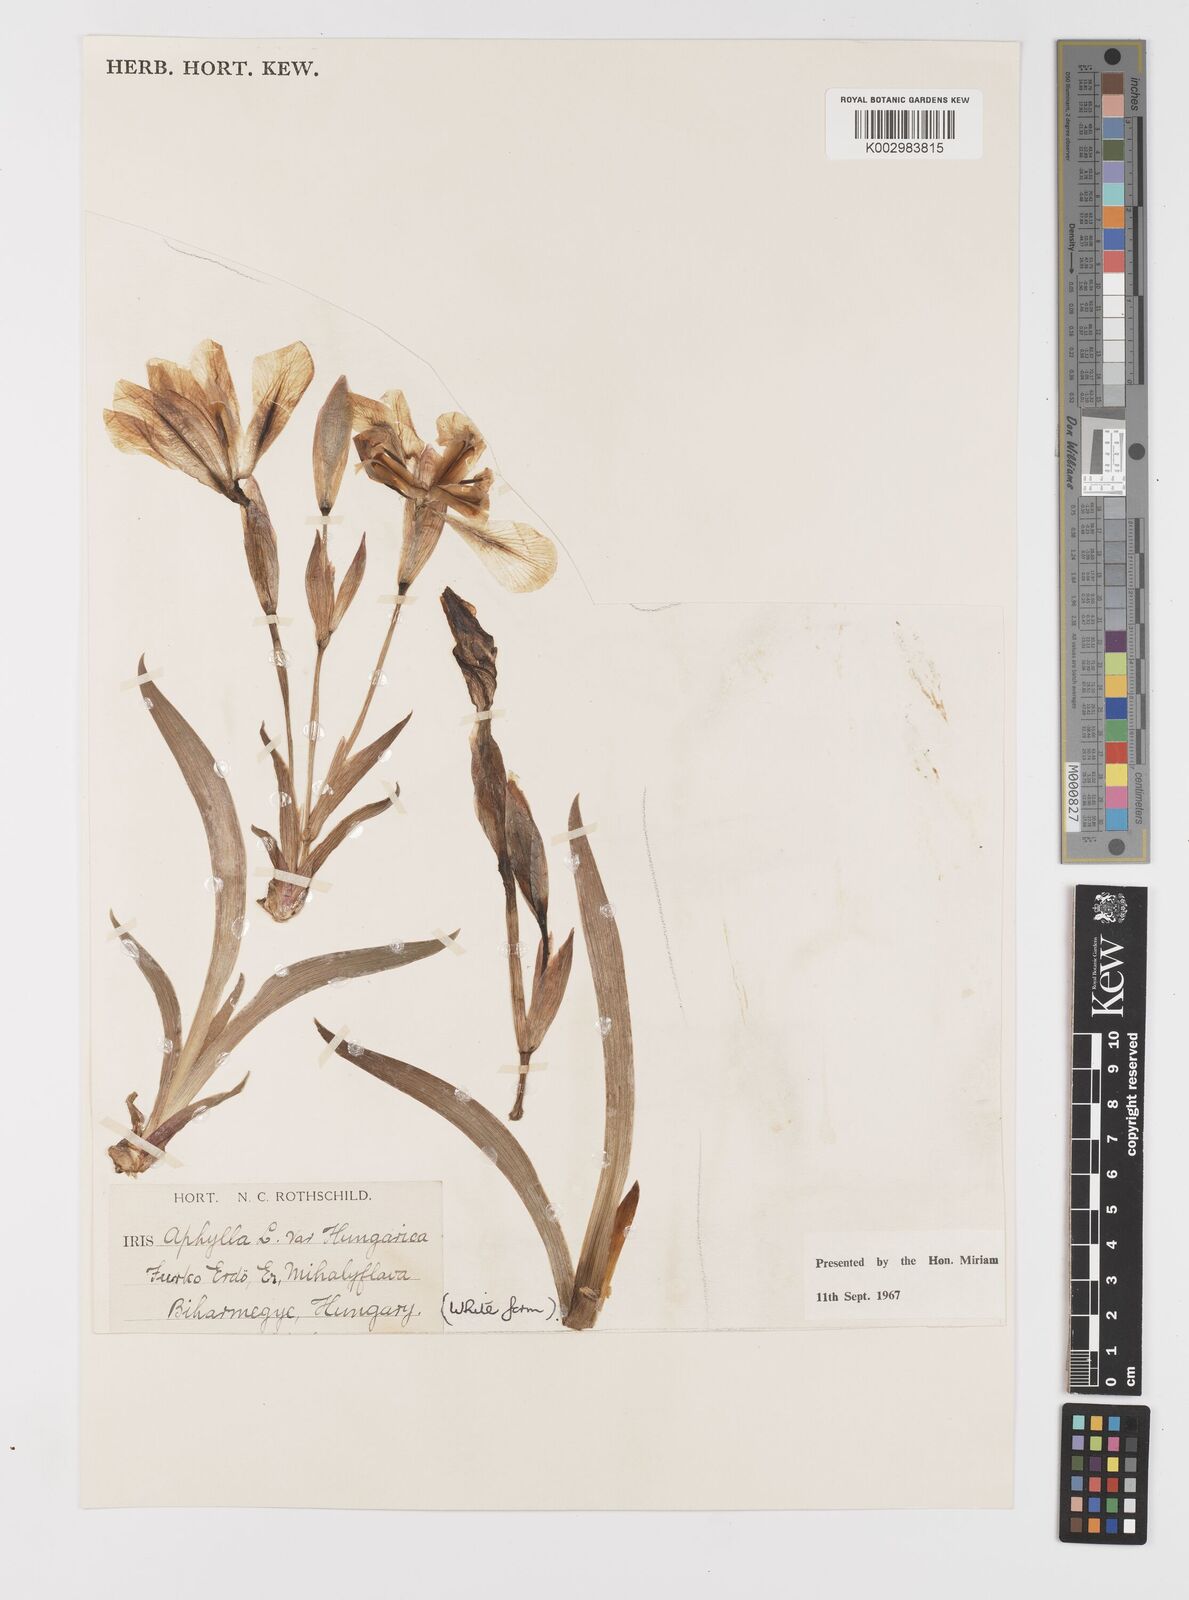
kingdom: Plantae
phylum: Tracheophyta
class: Liliopsida
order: Asparagales
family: Iridaceae
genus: Iris
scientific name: Iris aphylla
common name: Stool iris
